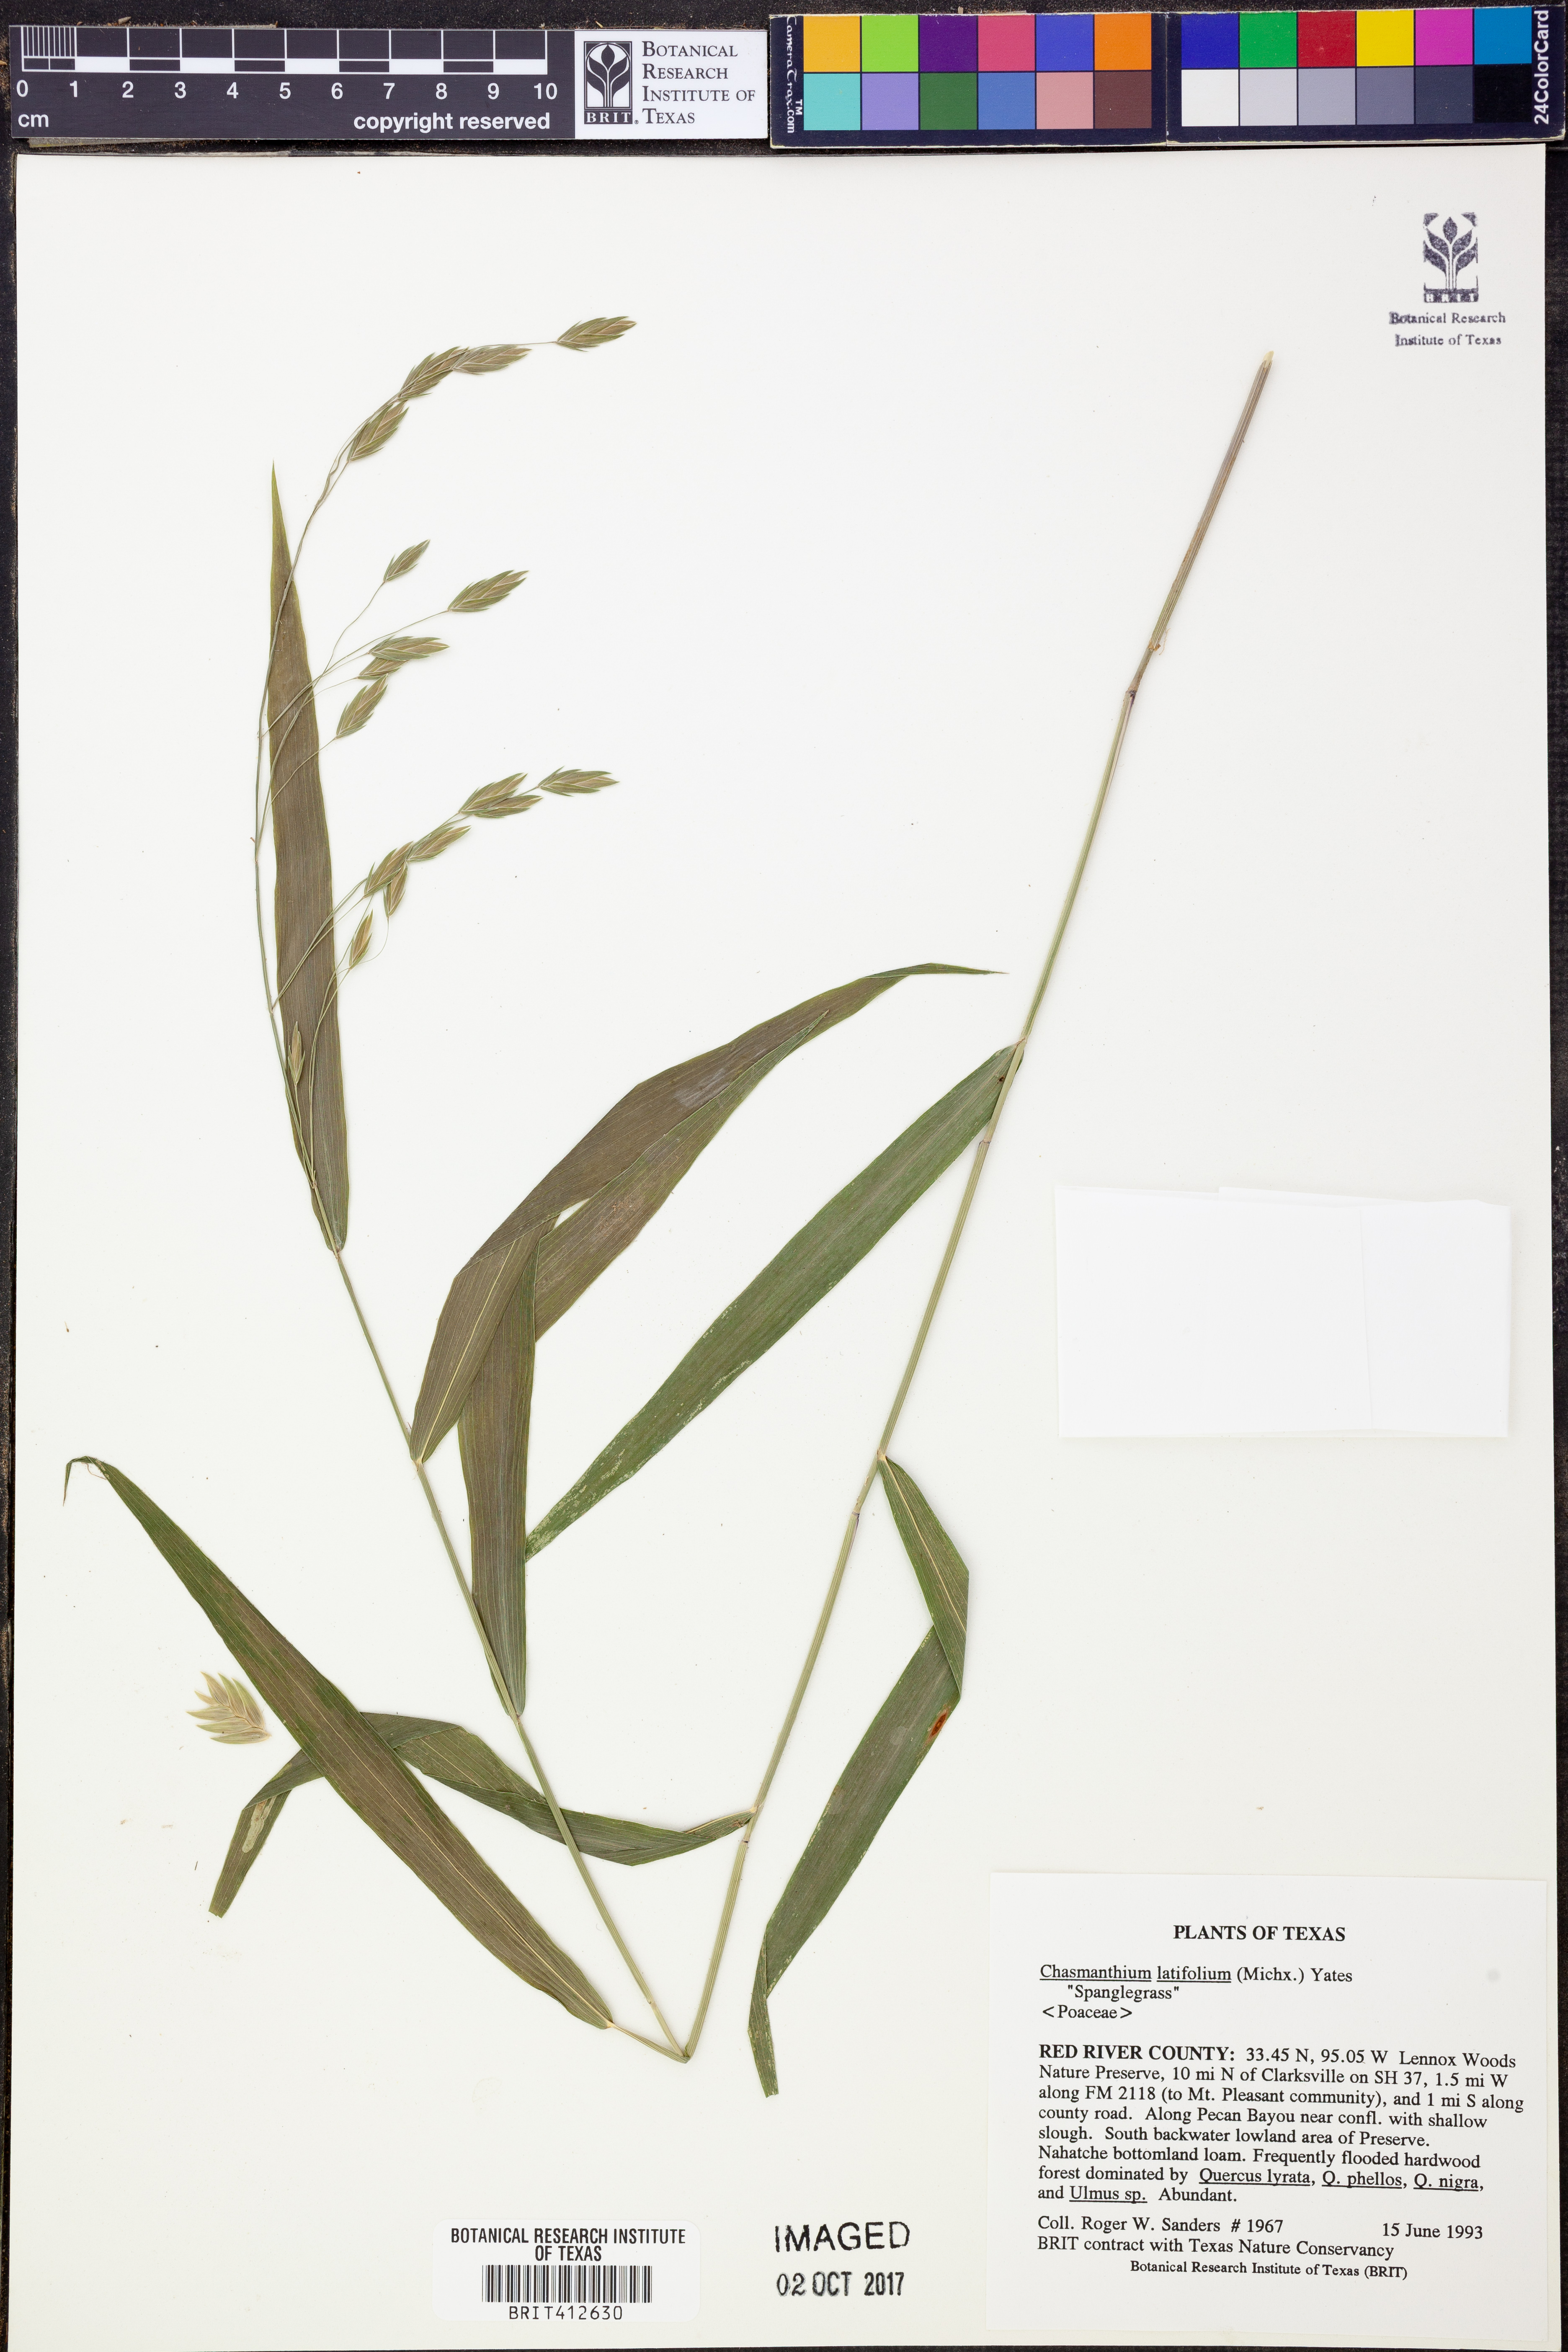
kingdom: Plantae
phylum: Tracheophyta
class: Liliopsida
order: Poales
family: Poaceae
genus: Chasmanthium
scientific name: Chasmanthium latifolium
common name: Broad-leaved chasmanthium
